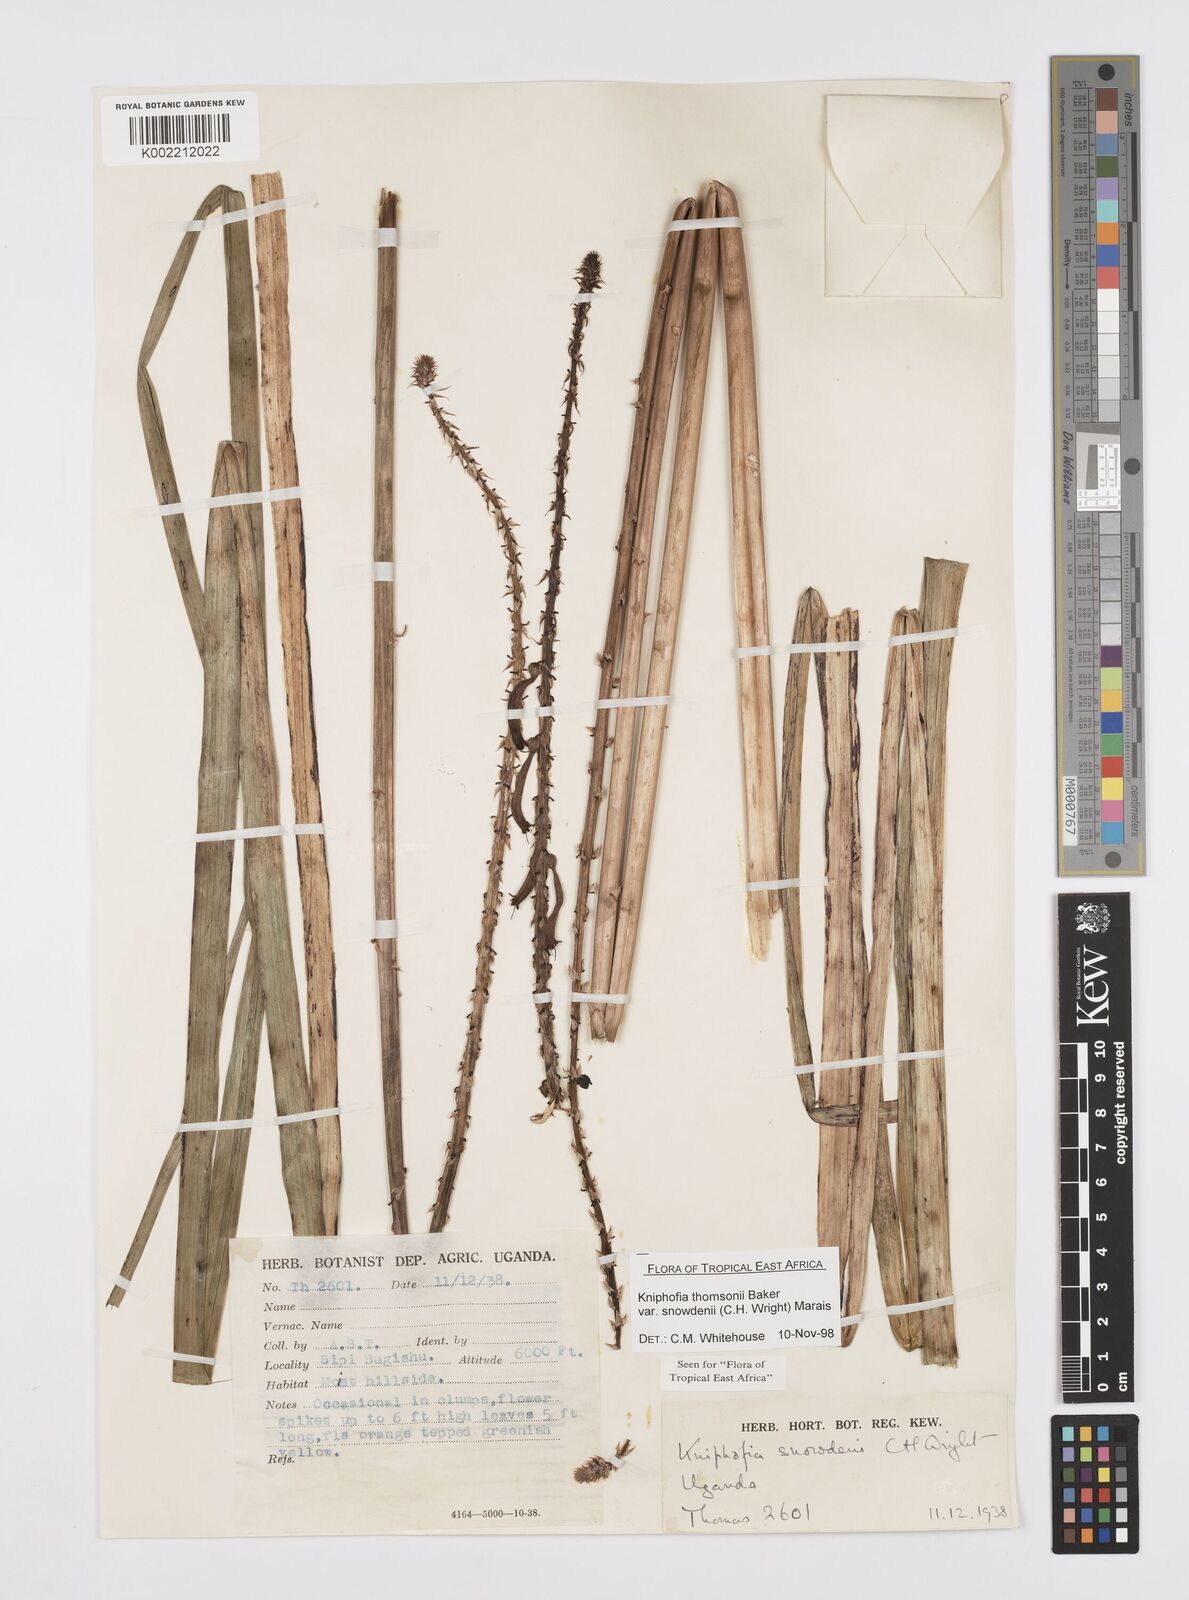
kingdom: Plantae
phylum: Tracheophyta
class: Liliopsida
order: Asparagales
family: Asphodelaceae
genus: Kniphofia
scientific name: Kniphofia thomsonii
